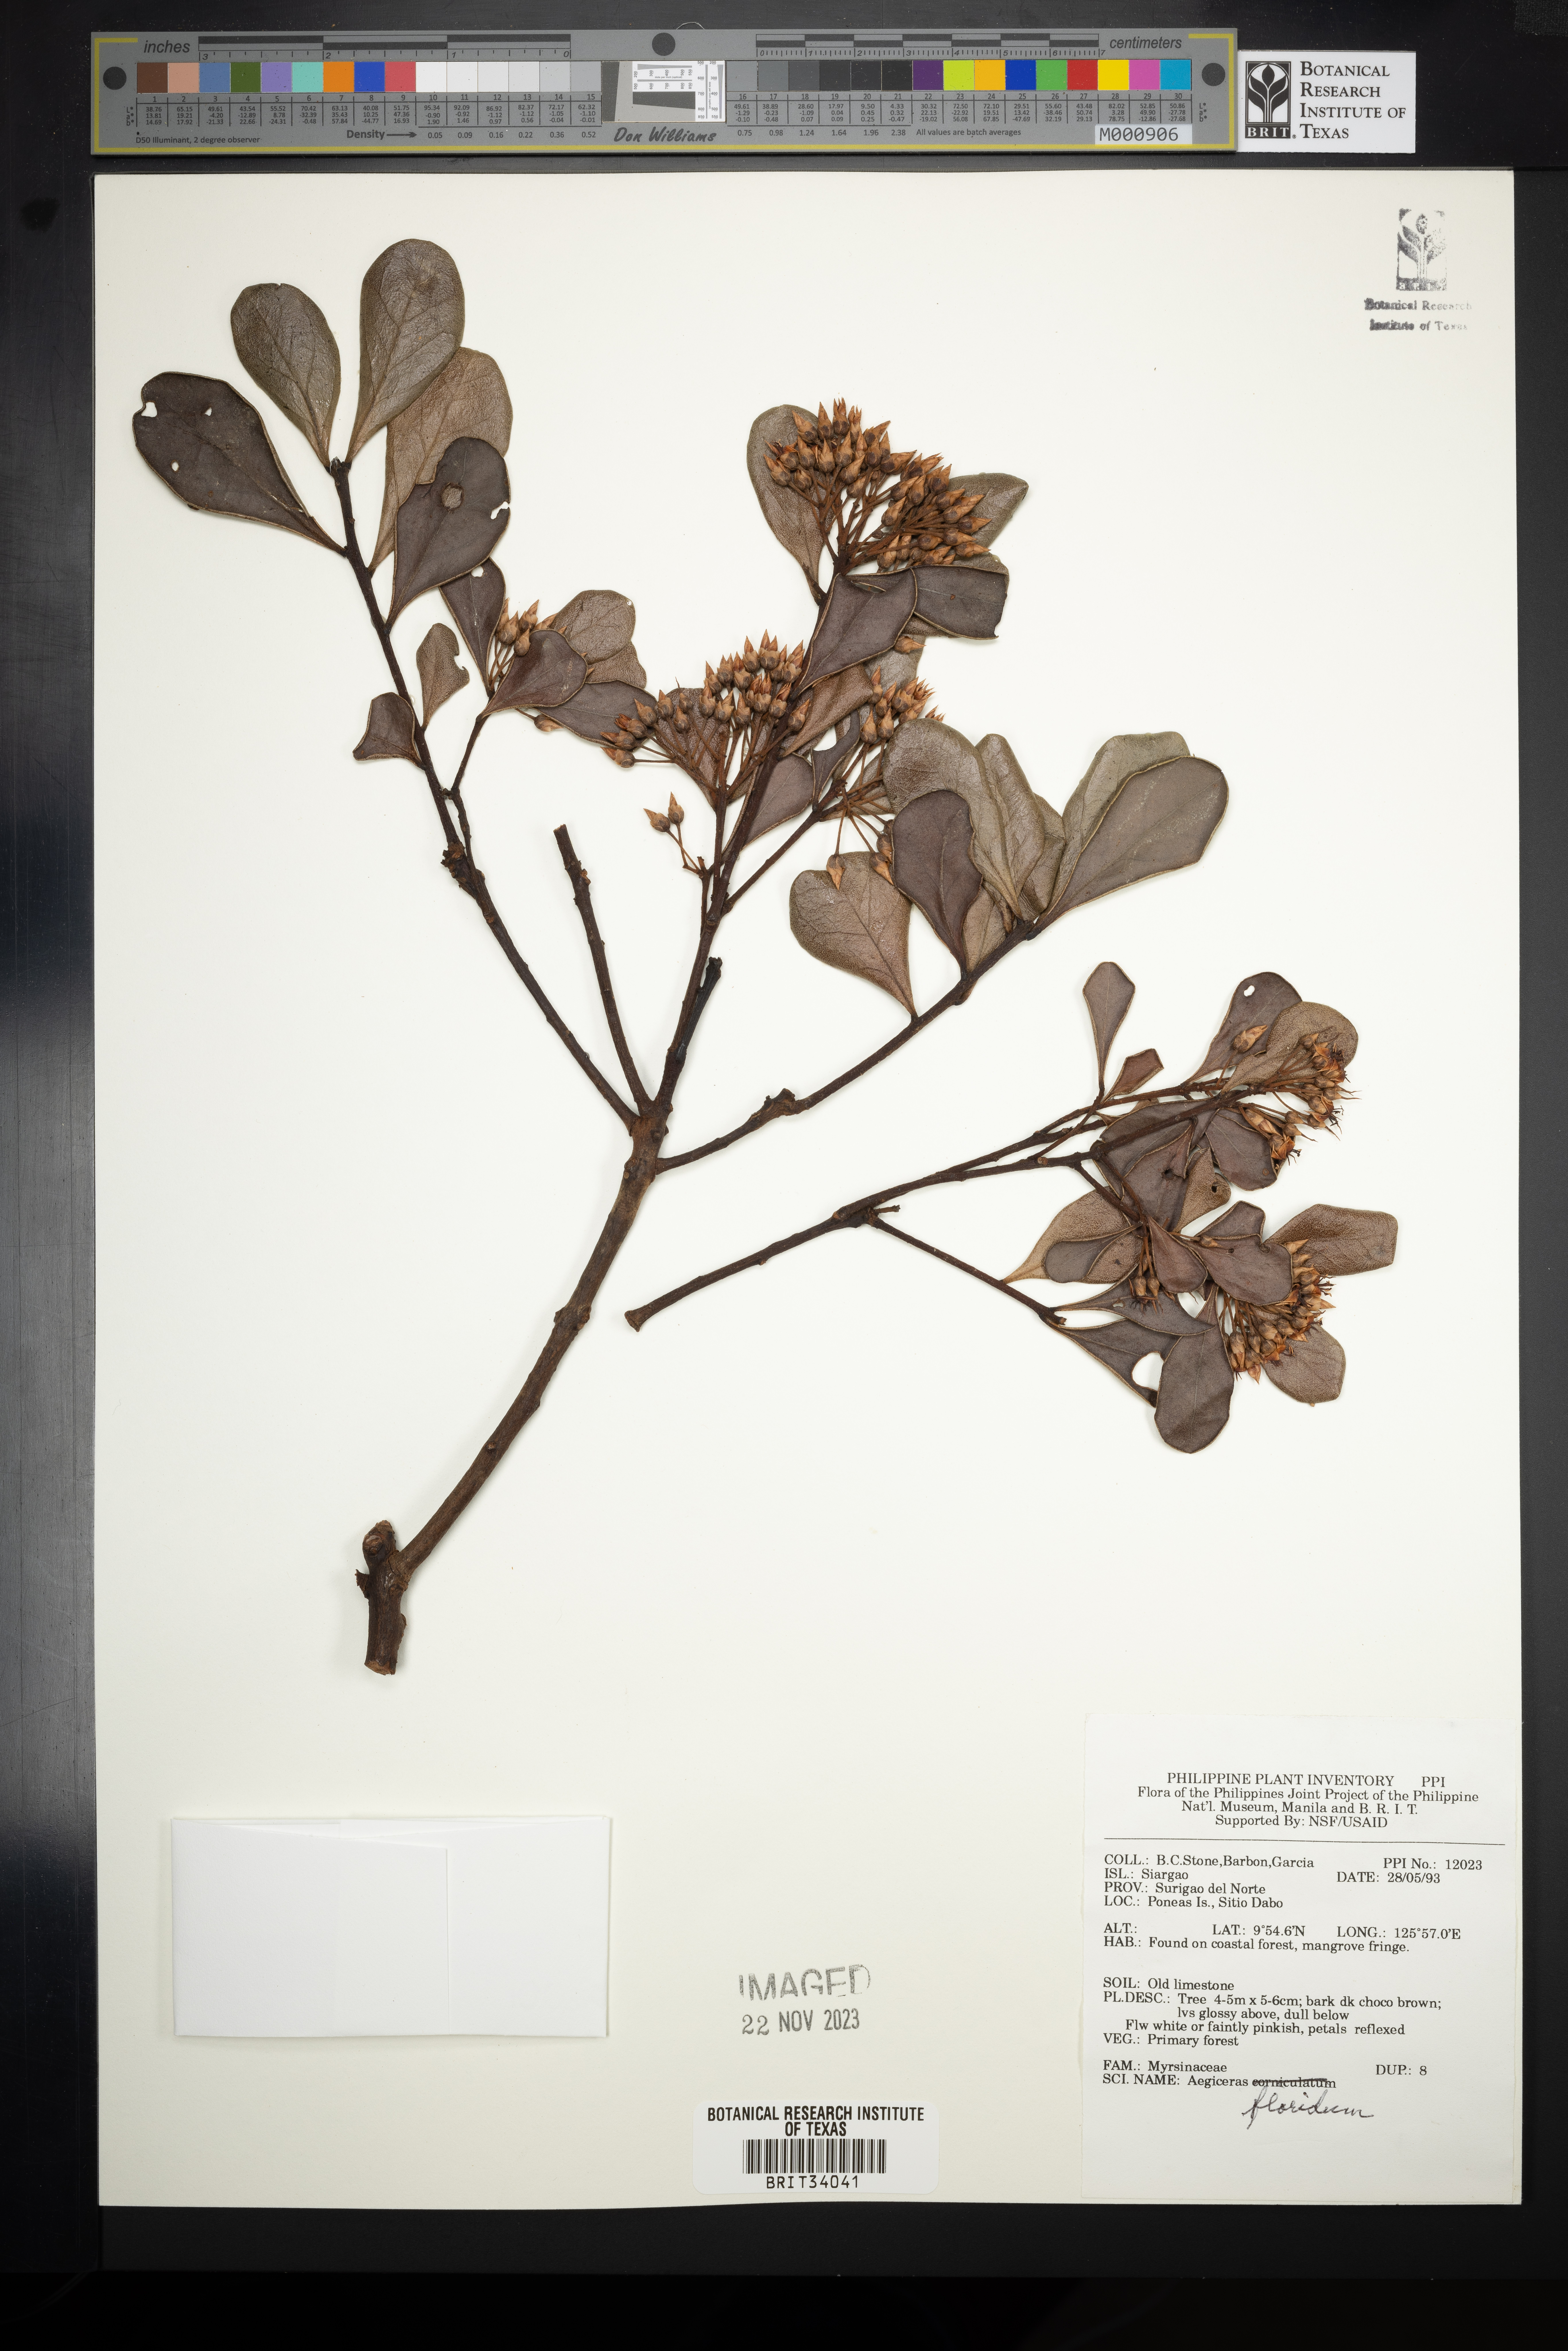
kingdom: Plantae
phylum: Tracheophyta
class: Magnoliopsida
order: Ericales
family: Primulaceae
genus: Aegiceras
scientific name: Aegiceras floridum
